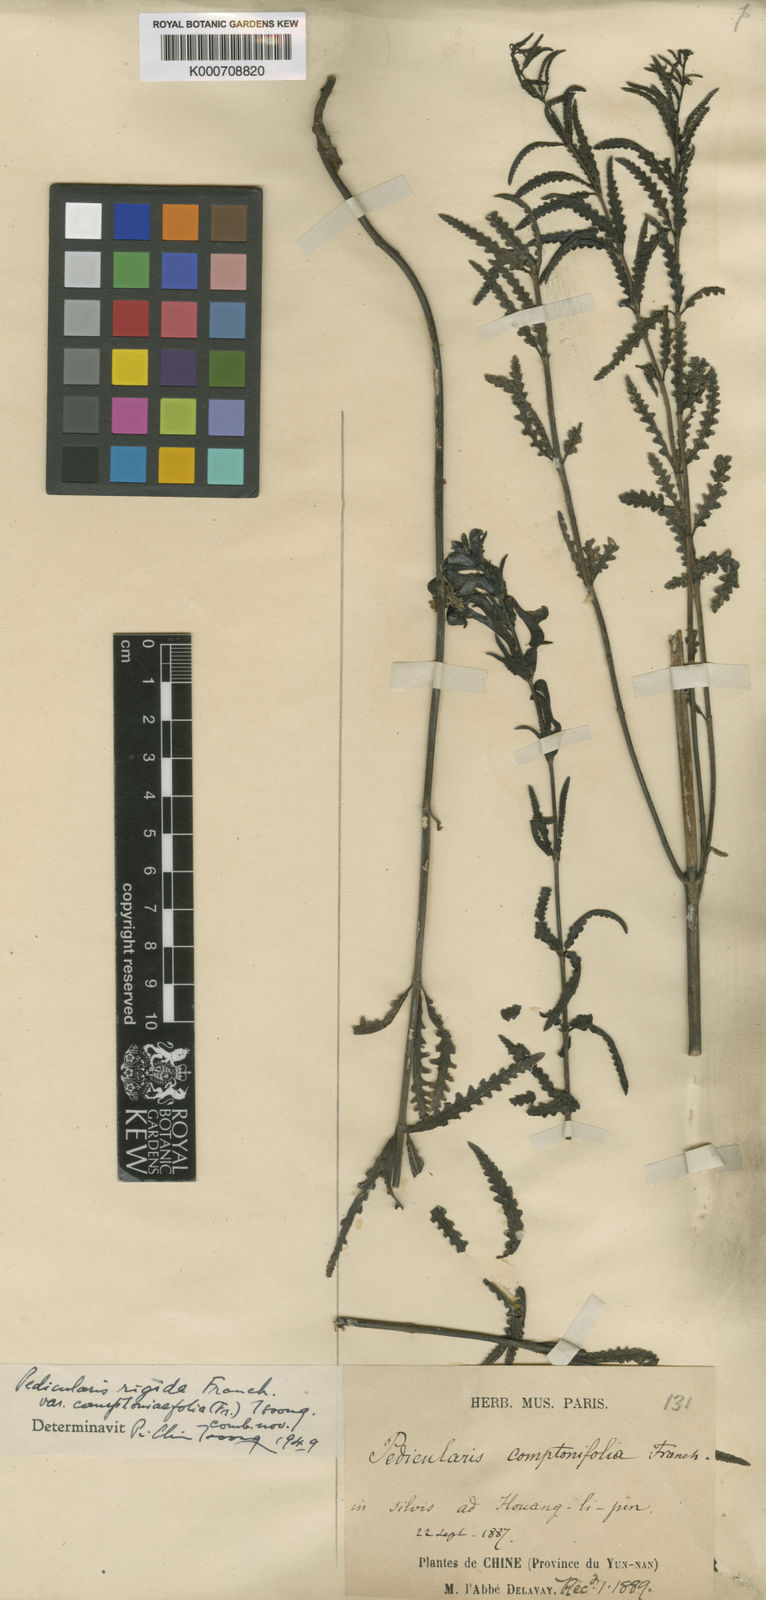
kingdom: Plantae
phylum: Tracheophyta
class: Magnoliopsida
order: Lamiales
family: Orobanchaceae
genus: Pedicularis
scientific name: Pedicularis rigida
